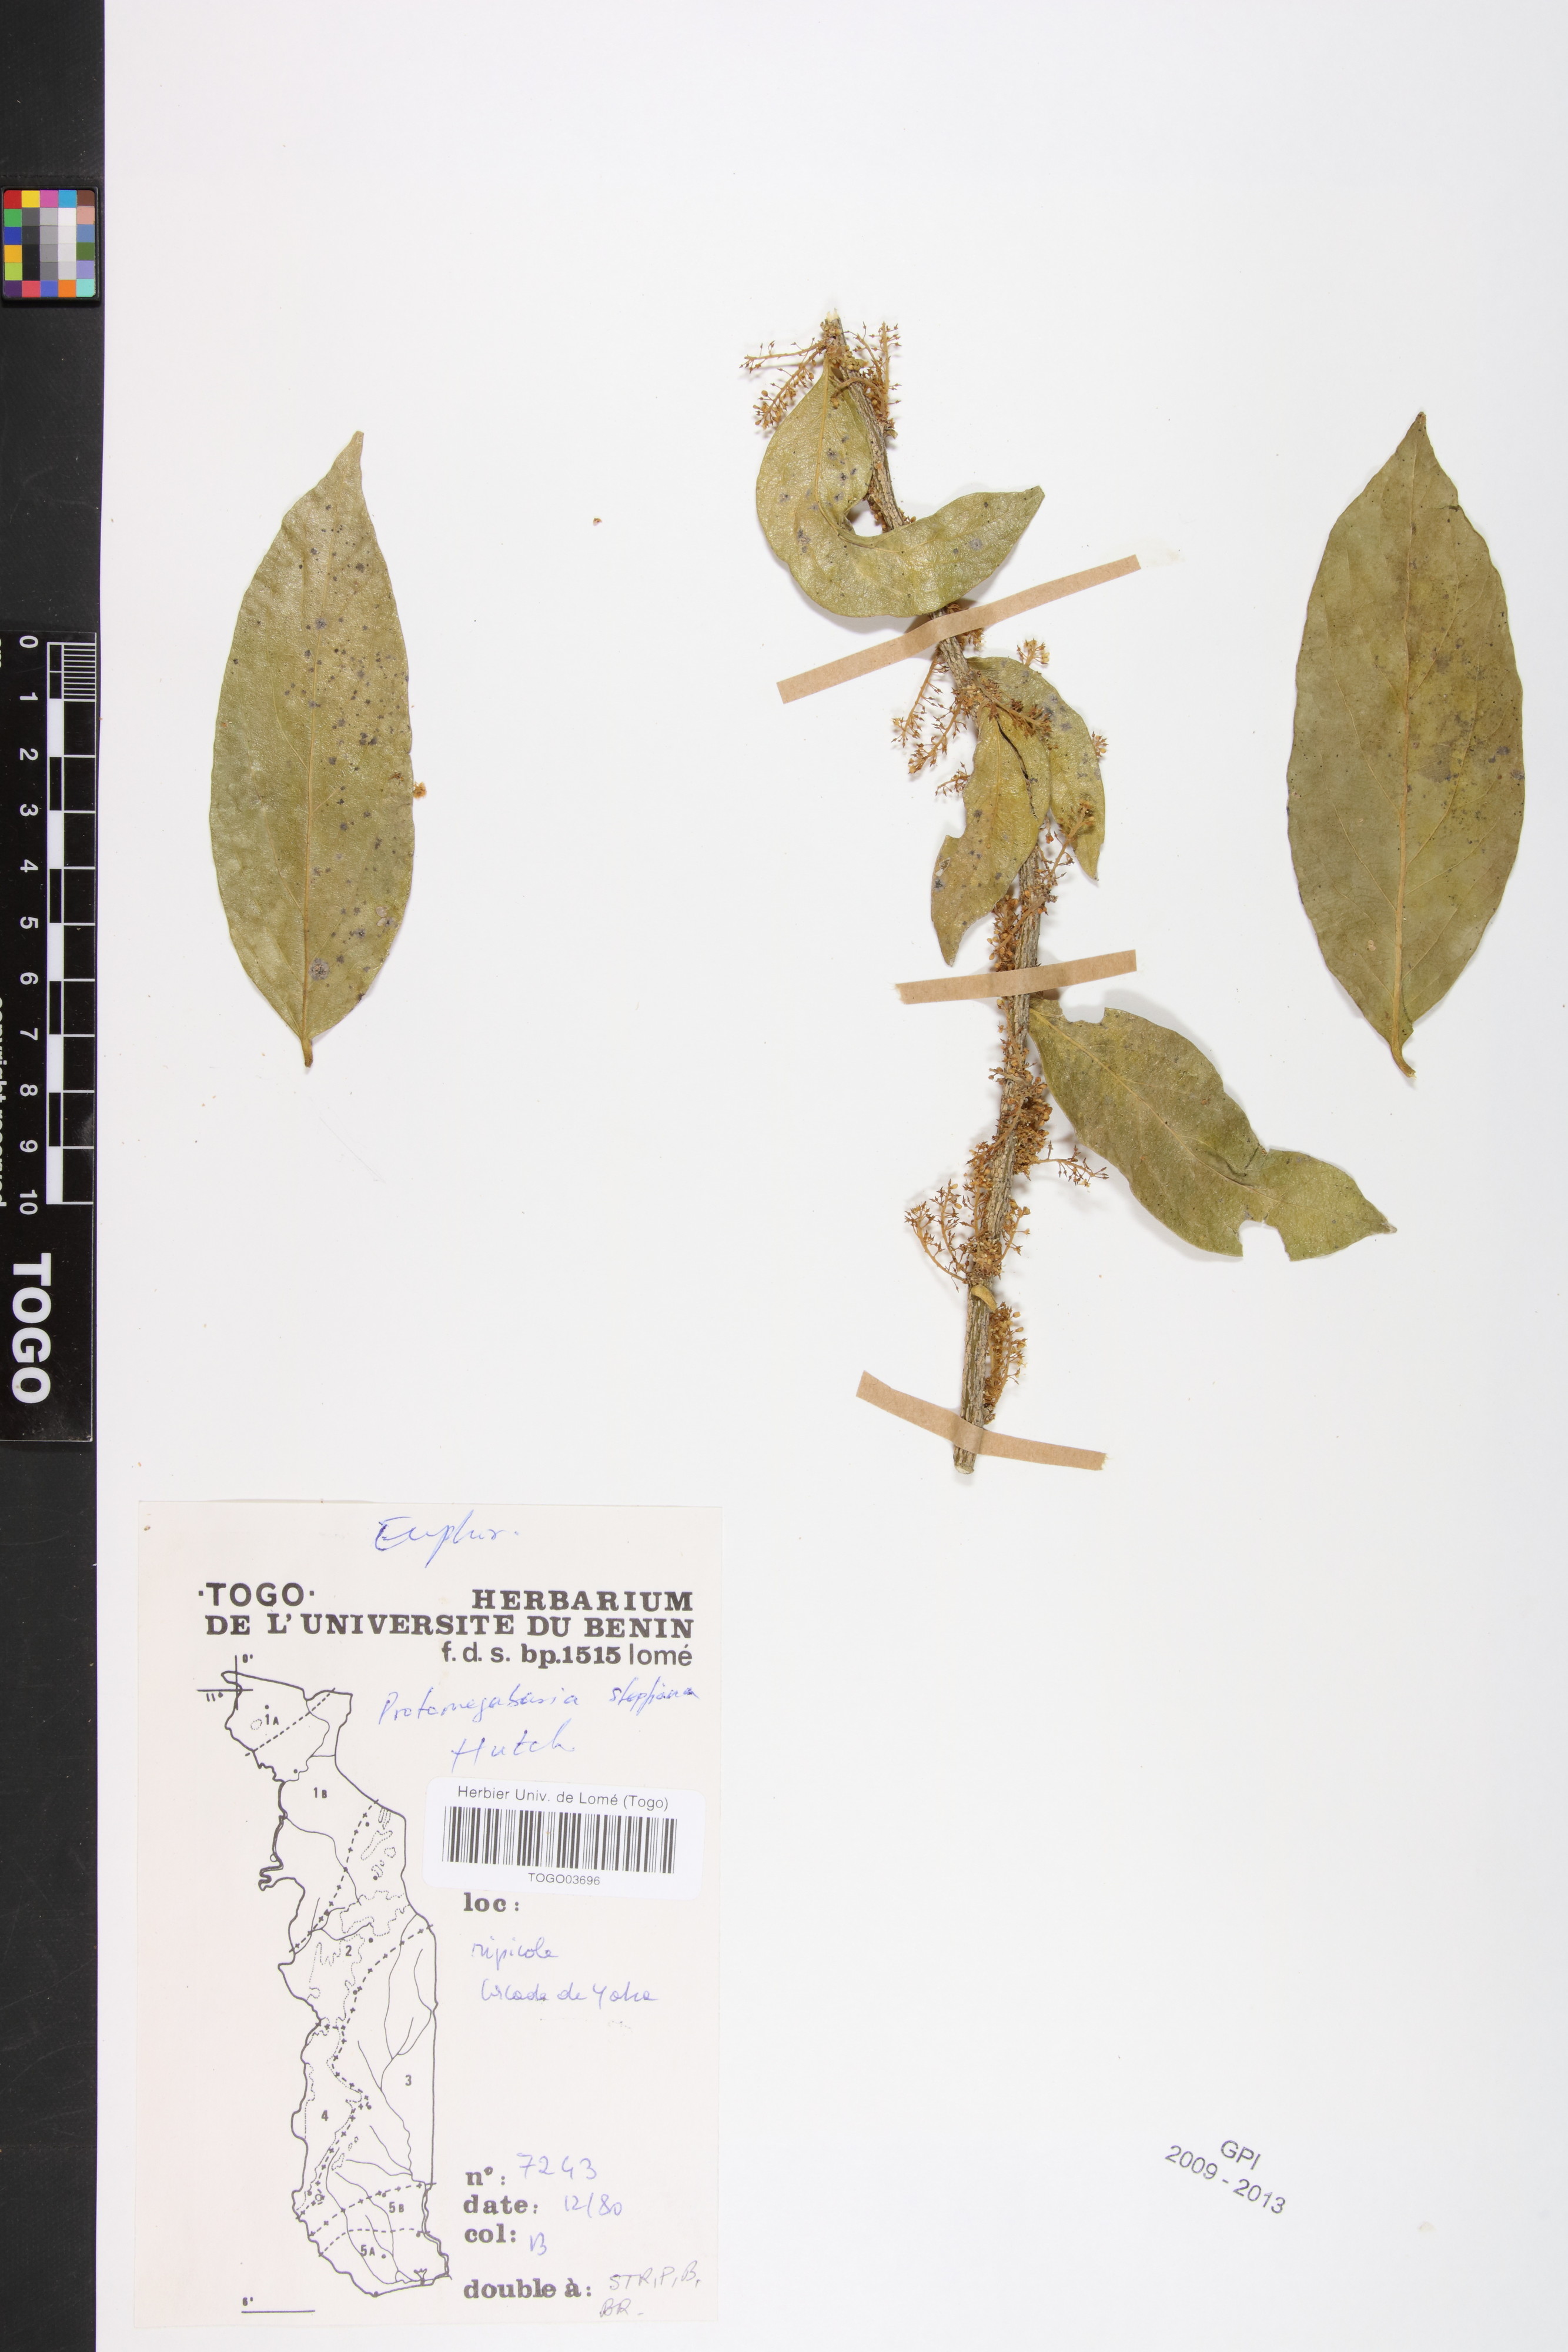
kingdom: Plantae
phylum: Tracheophyta
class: Magnoliopsida
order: Malpighiales
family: Phyllanthaceae
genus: Protomegabaria
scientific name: Protomegabaria stapfiana
